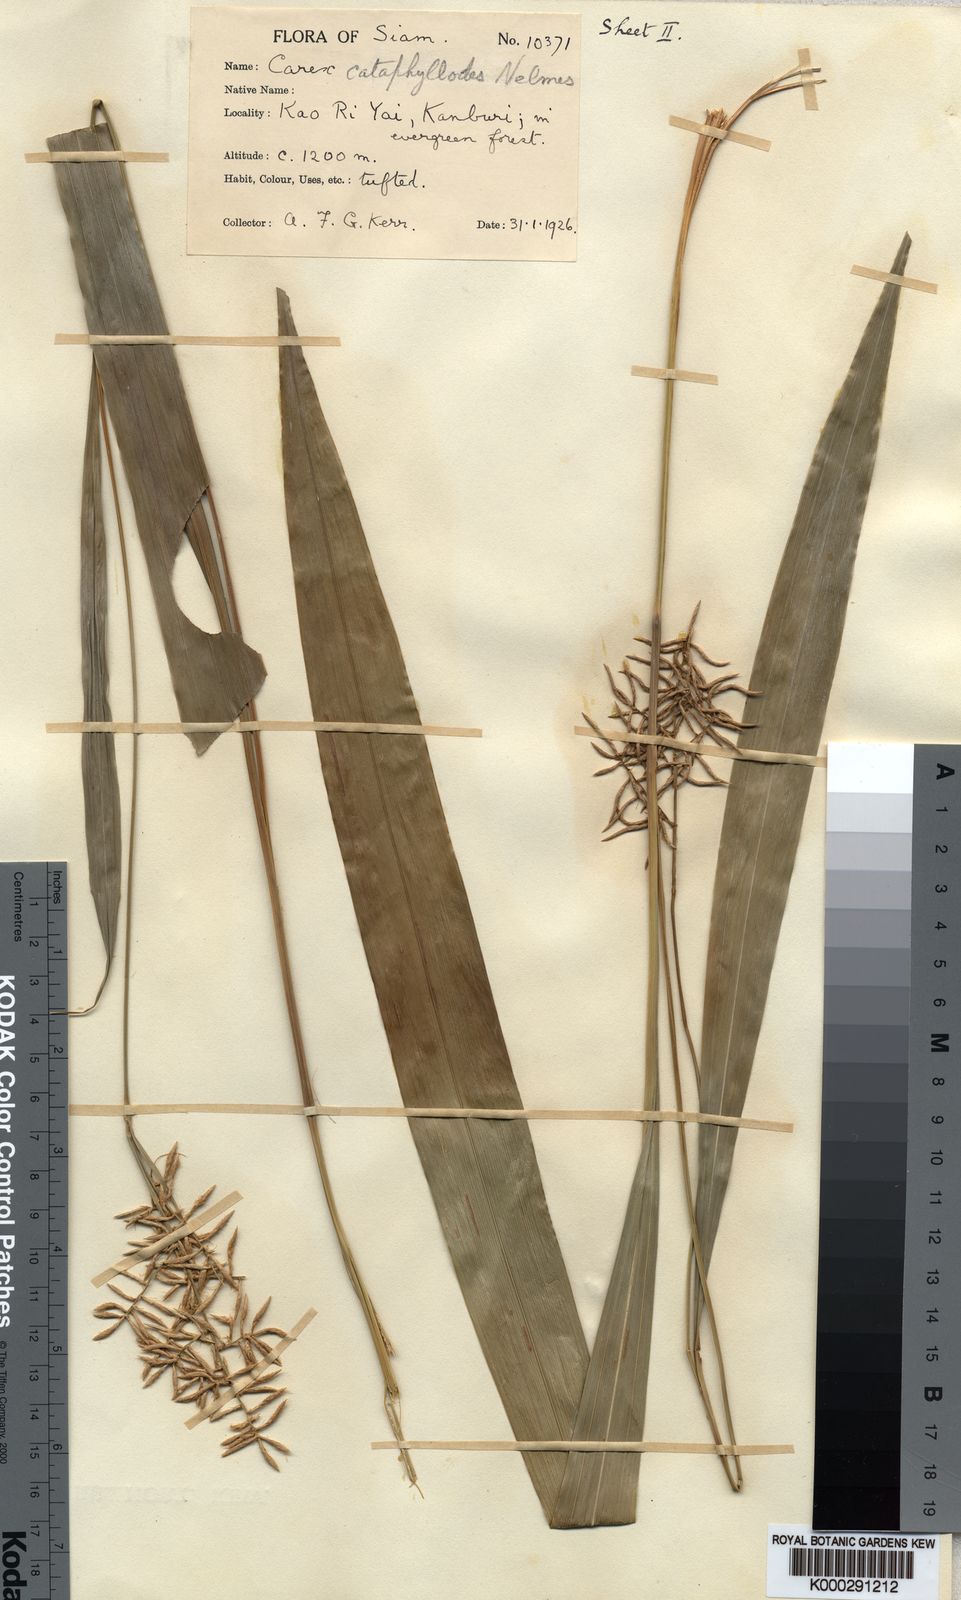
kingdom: Plantae
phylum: Tracheophyta
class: Liliopsida
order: Poales
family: Cyperaceae
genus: Carex
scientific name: Carex cataphyllodes
